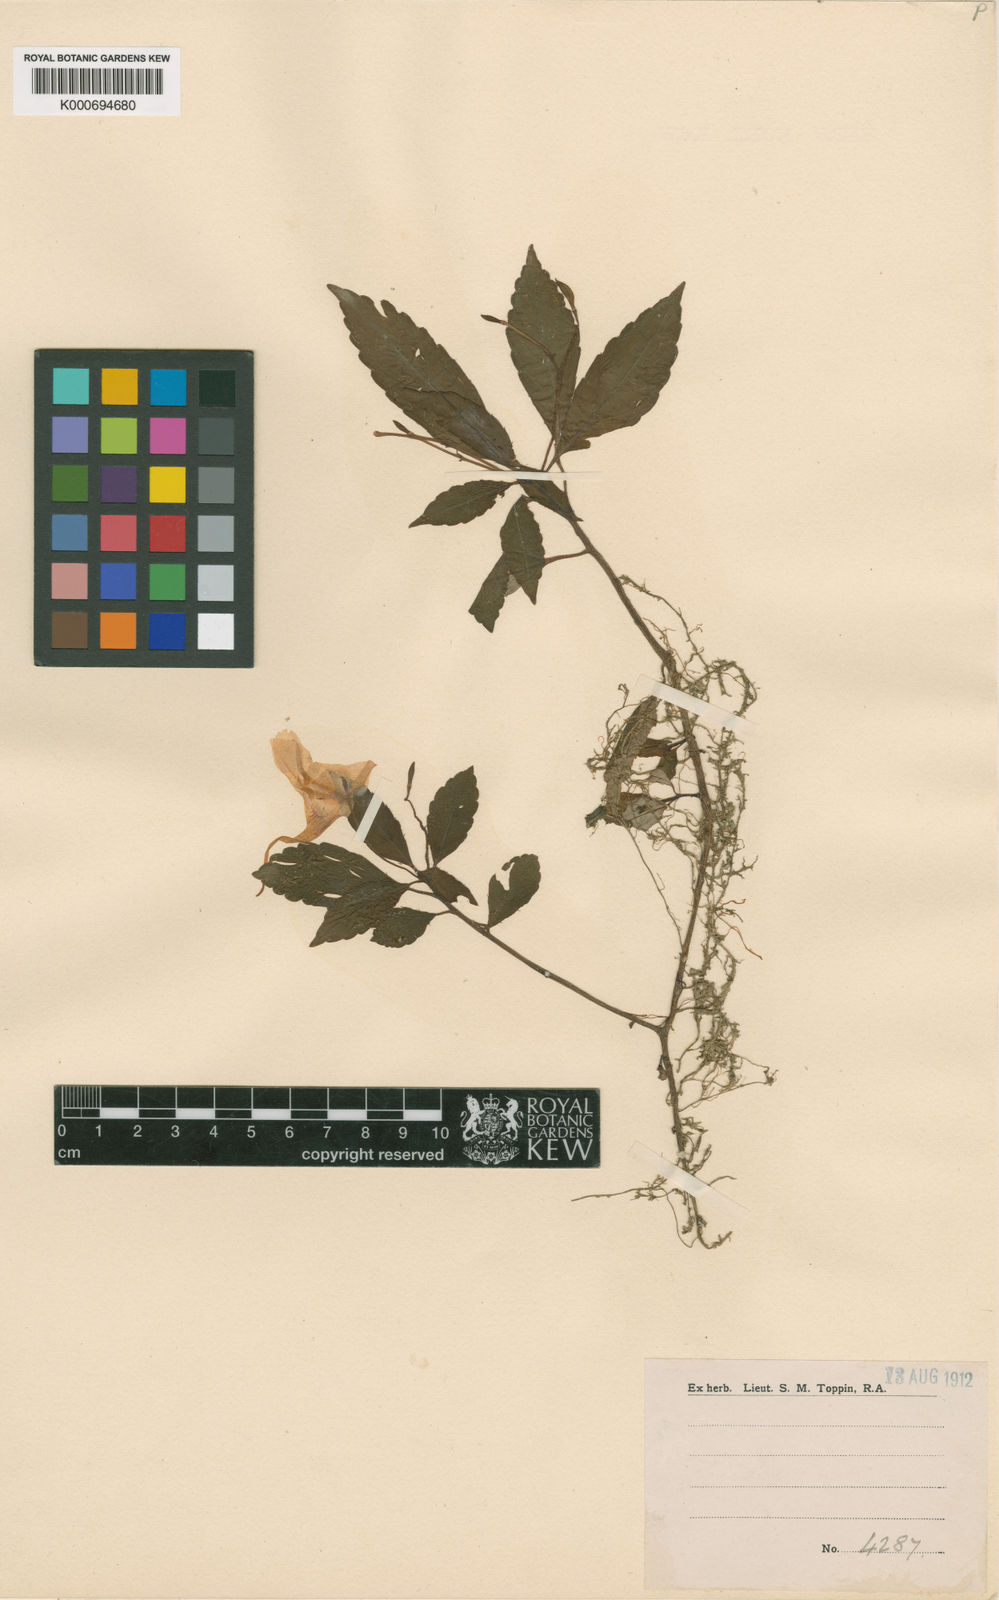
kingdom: Plantae
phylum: Tracheophyta
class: Magnoliopsida
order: Ericales
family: Balsaminaceae
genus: Impatiens
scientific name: Impatiens delicata
